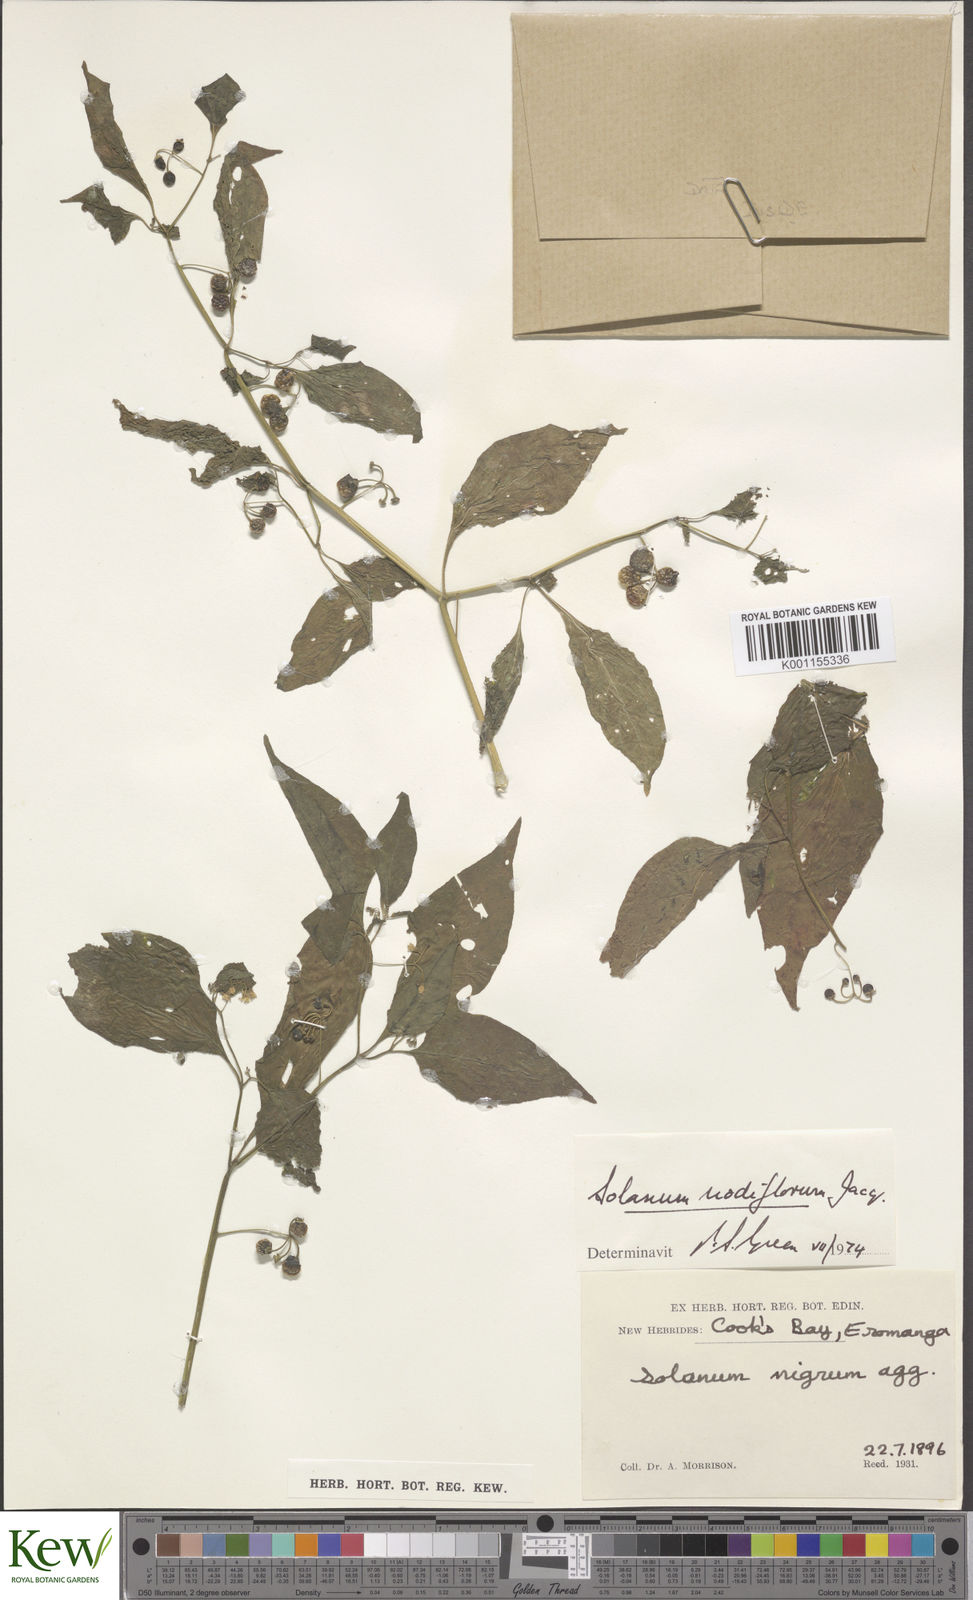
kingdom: Plantae
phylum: Tracheophyta
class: Magnoliopsida
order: Solanales
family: Solanaceae
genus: Solanum
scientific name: Solanum americanum
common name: American black nightshade
